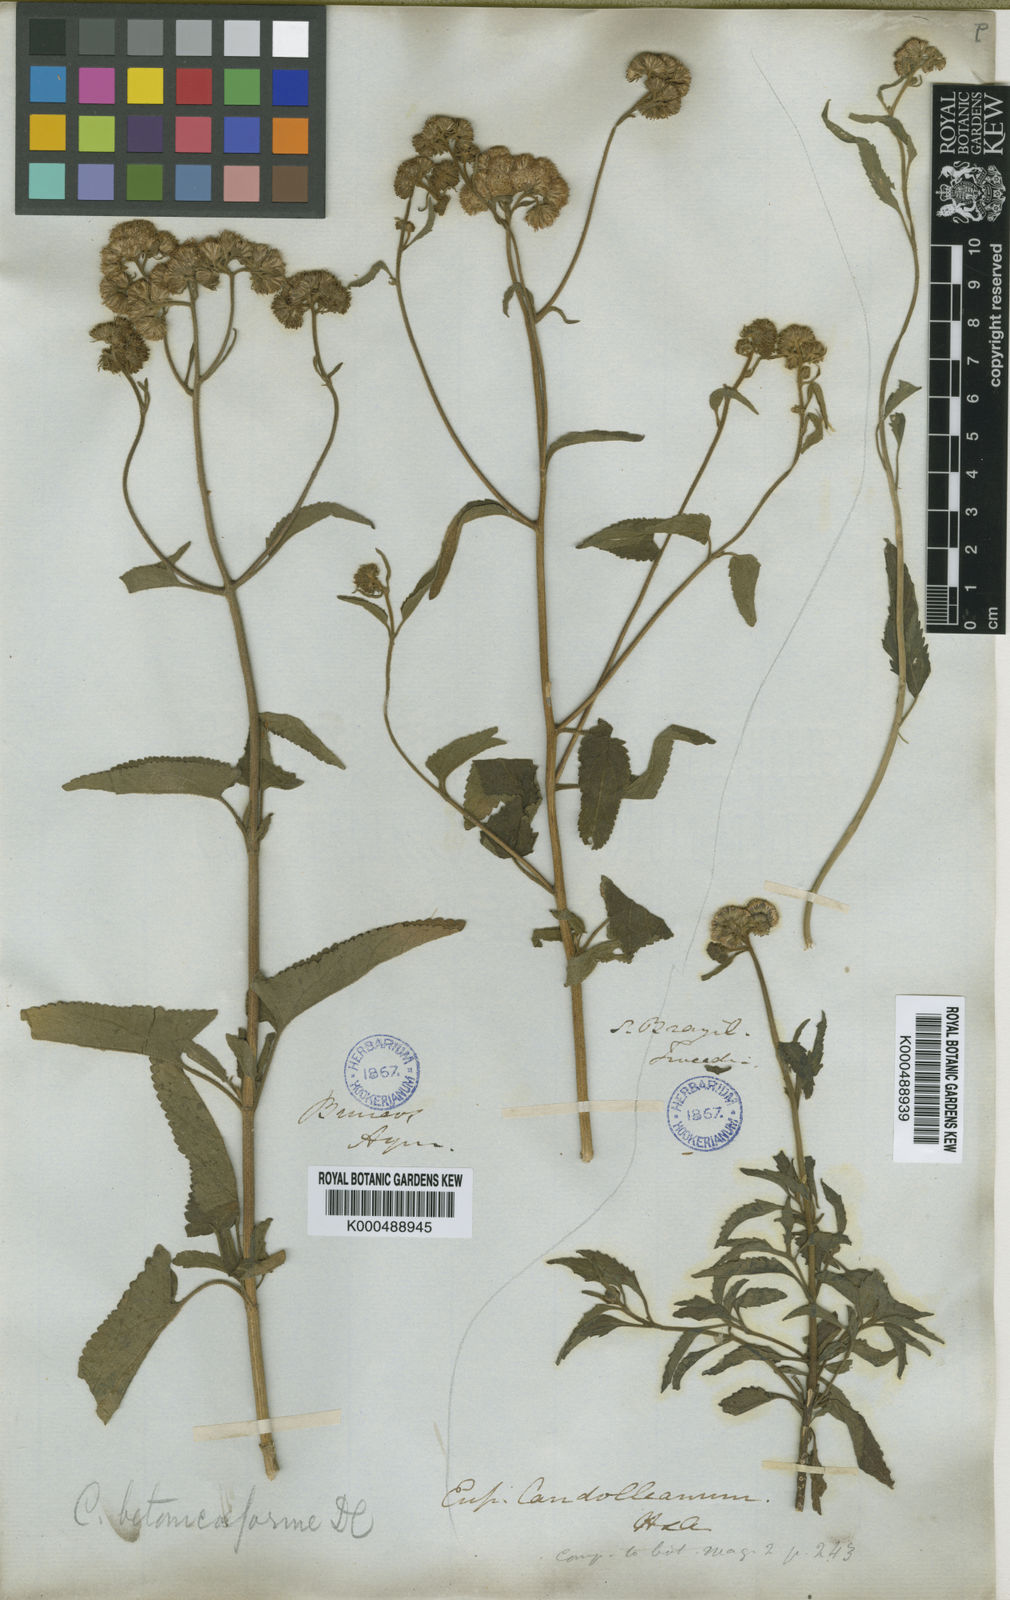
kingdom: Plantae
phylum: Tracheophyta
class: Magnoliopsida
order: Asterales
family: Asteraceae
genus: Barrosoa
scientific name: Barrosoa candolleana
